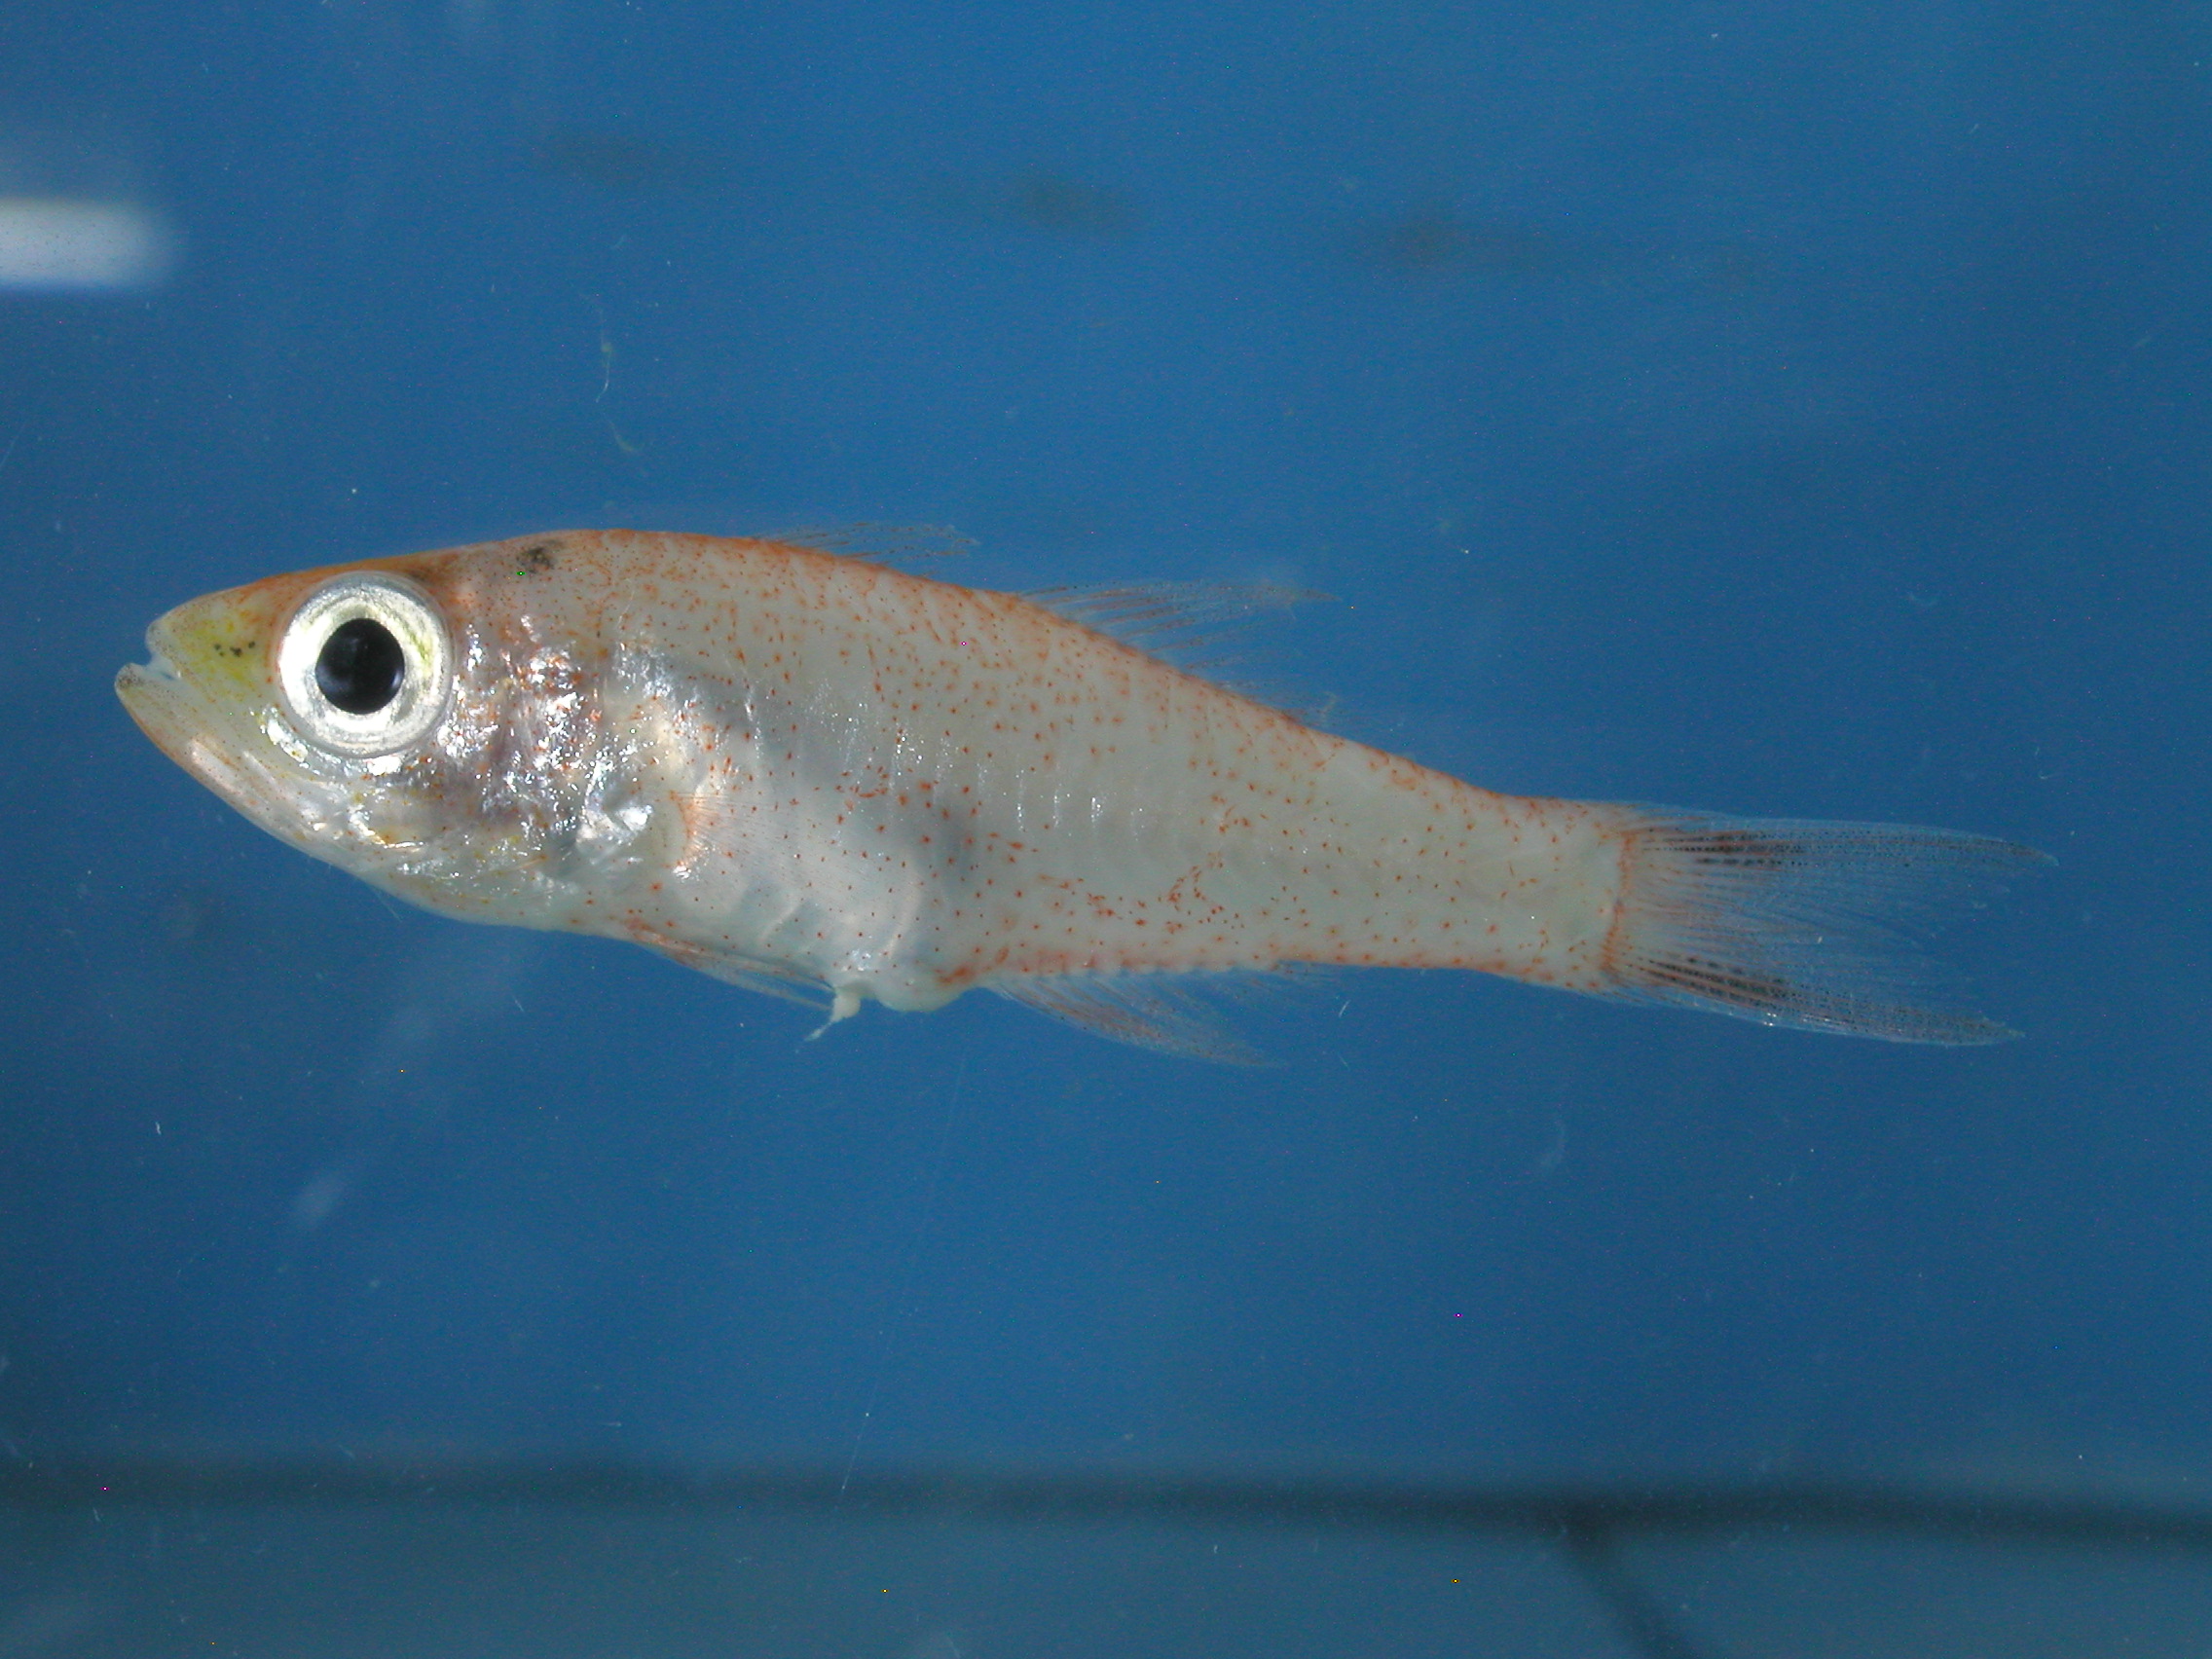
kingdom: Animalia
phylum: Chordata
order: Perciformes
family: Apogonidae
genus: Verulux
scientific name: Verulux cypselurus
